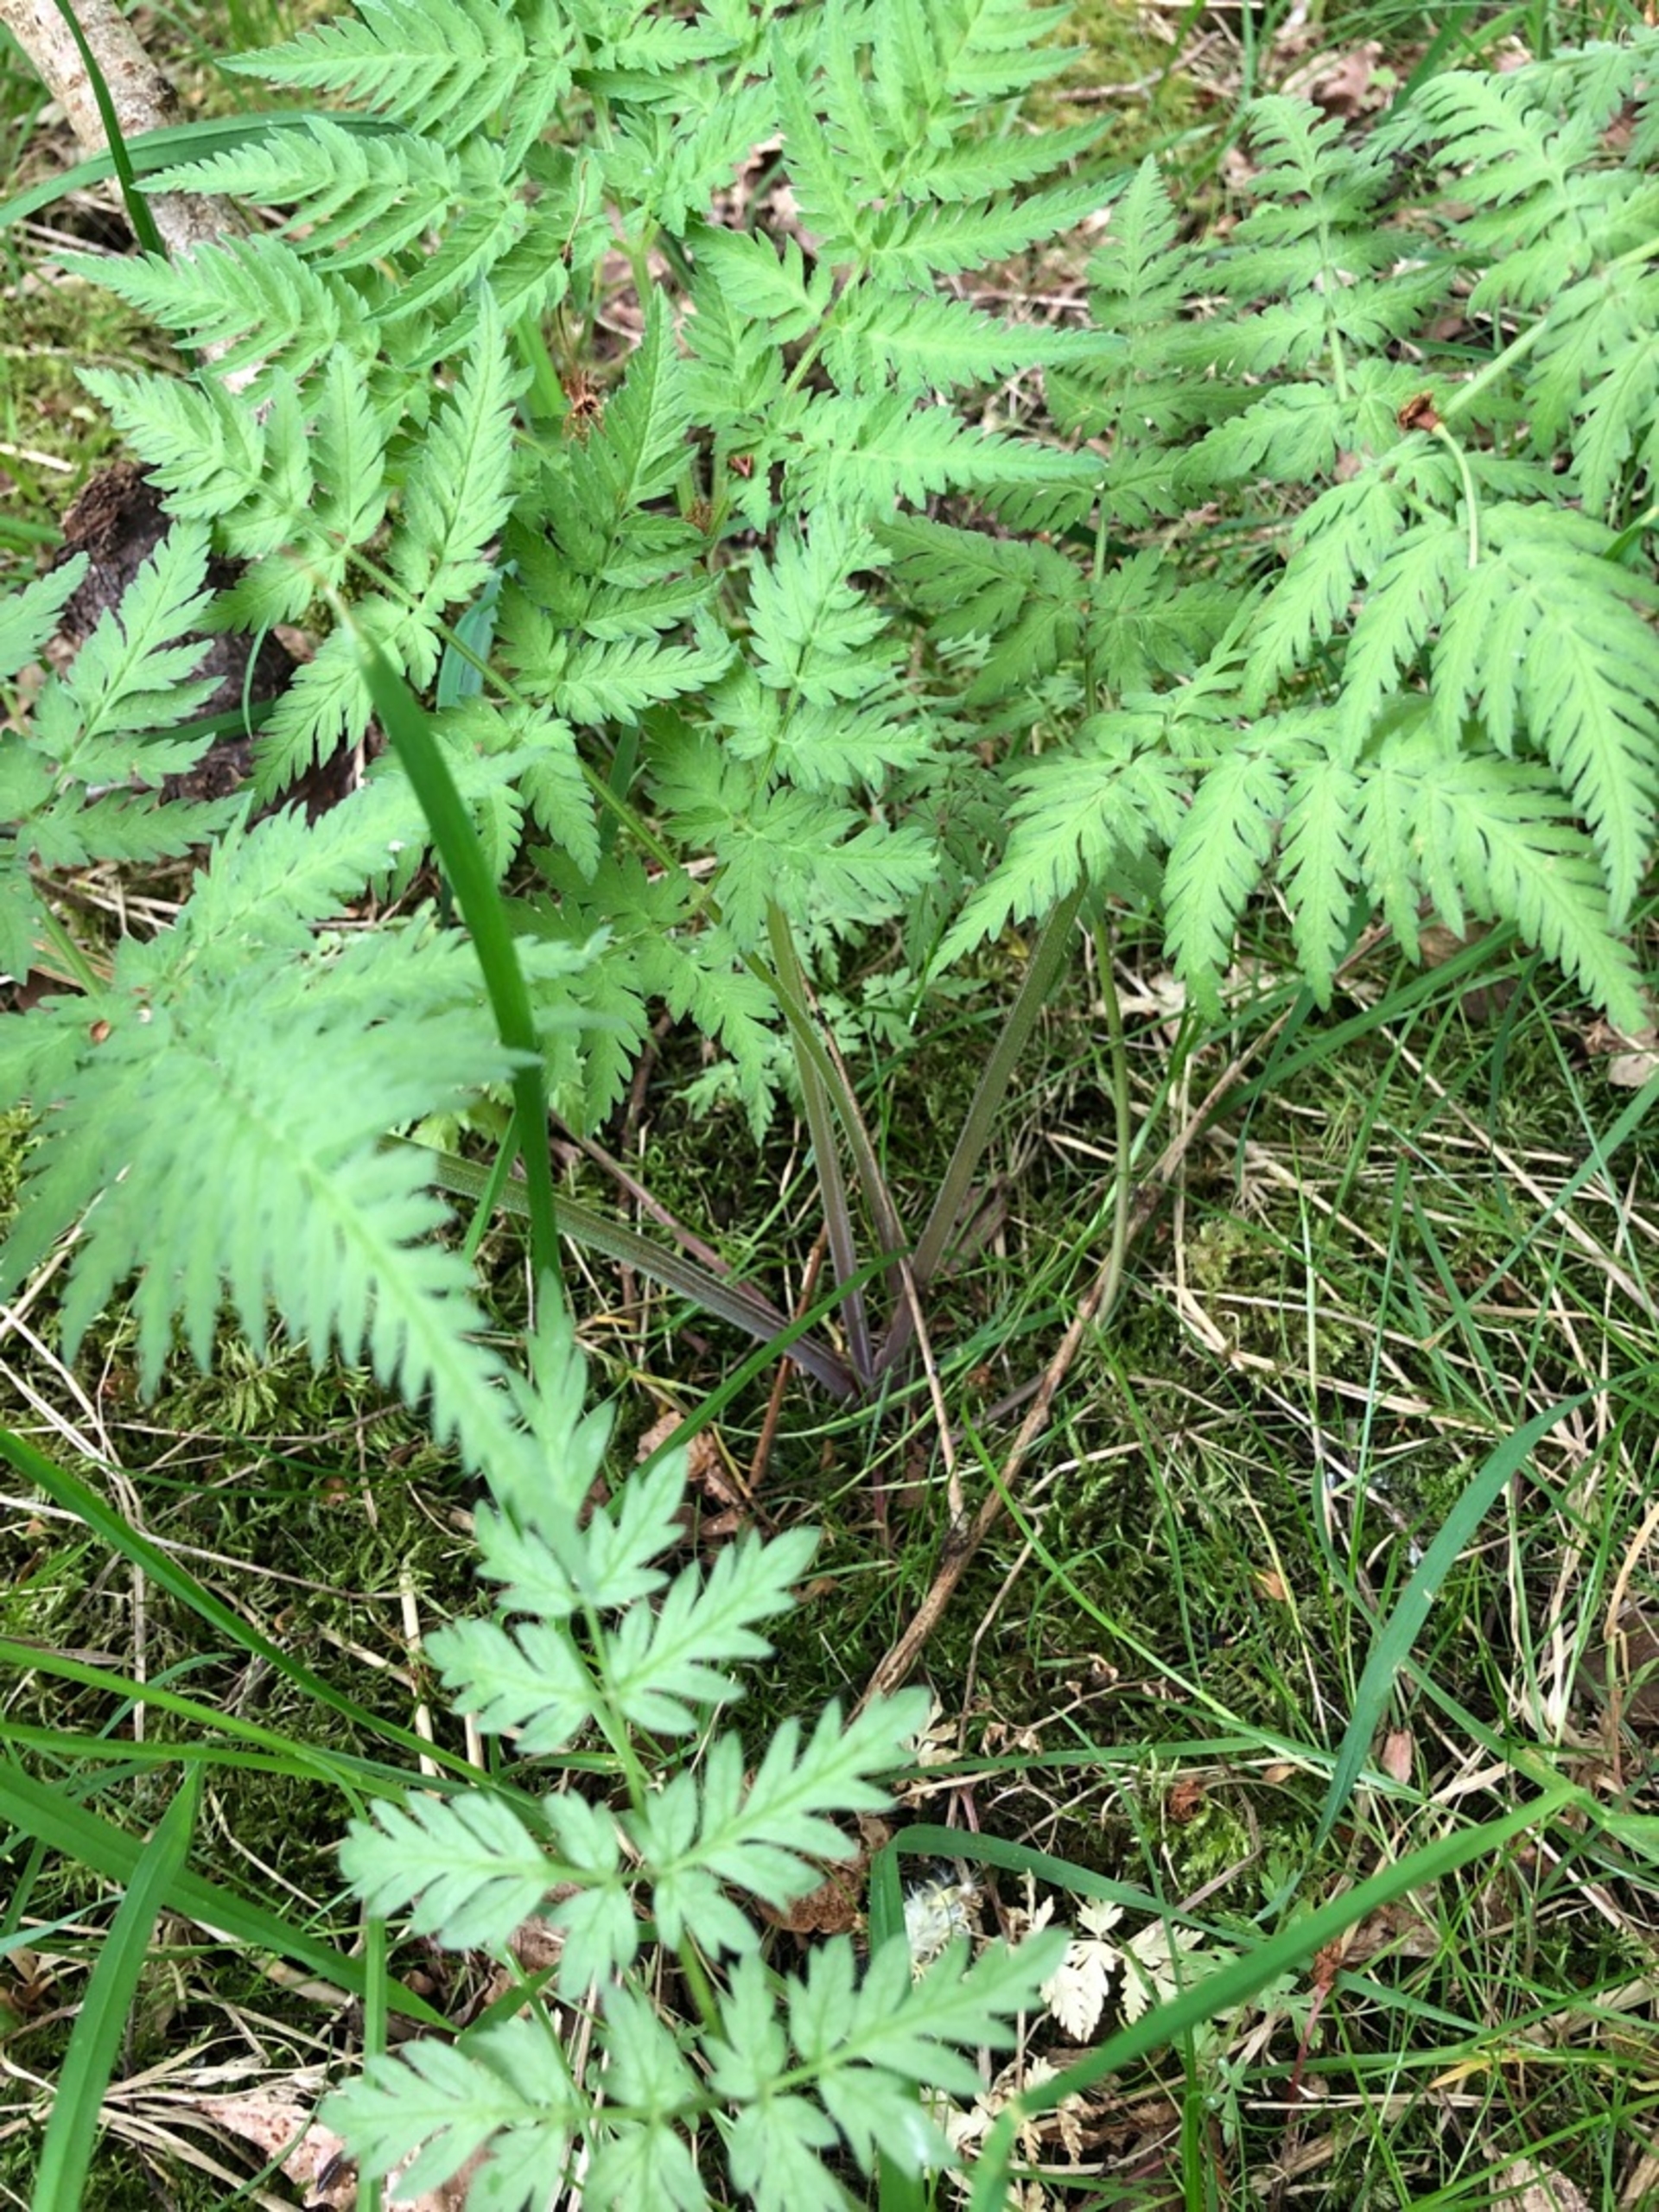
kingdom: Plantae
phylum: Tracheophyta
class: Magnoliopsida
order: Apiales
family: Apiaceae
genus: Anthriscus
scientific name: Anthriscus sylvestris
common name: Vild kørvel
